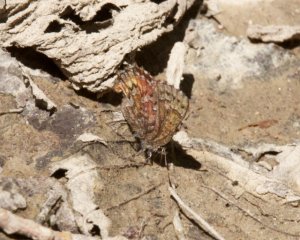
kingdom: Animalia
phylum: Arthropoda
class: Insecta
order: Lepidoptera
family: Lycaenidae
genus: Incisalia
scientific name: Incisalia niphon
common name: Eastern Pine Elfin
